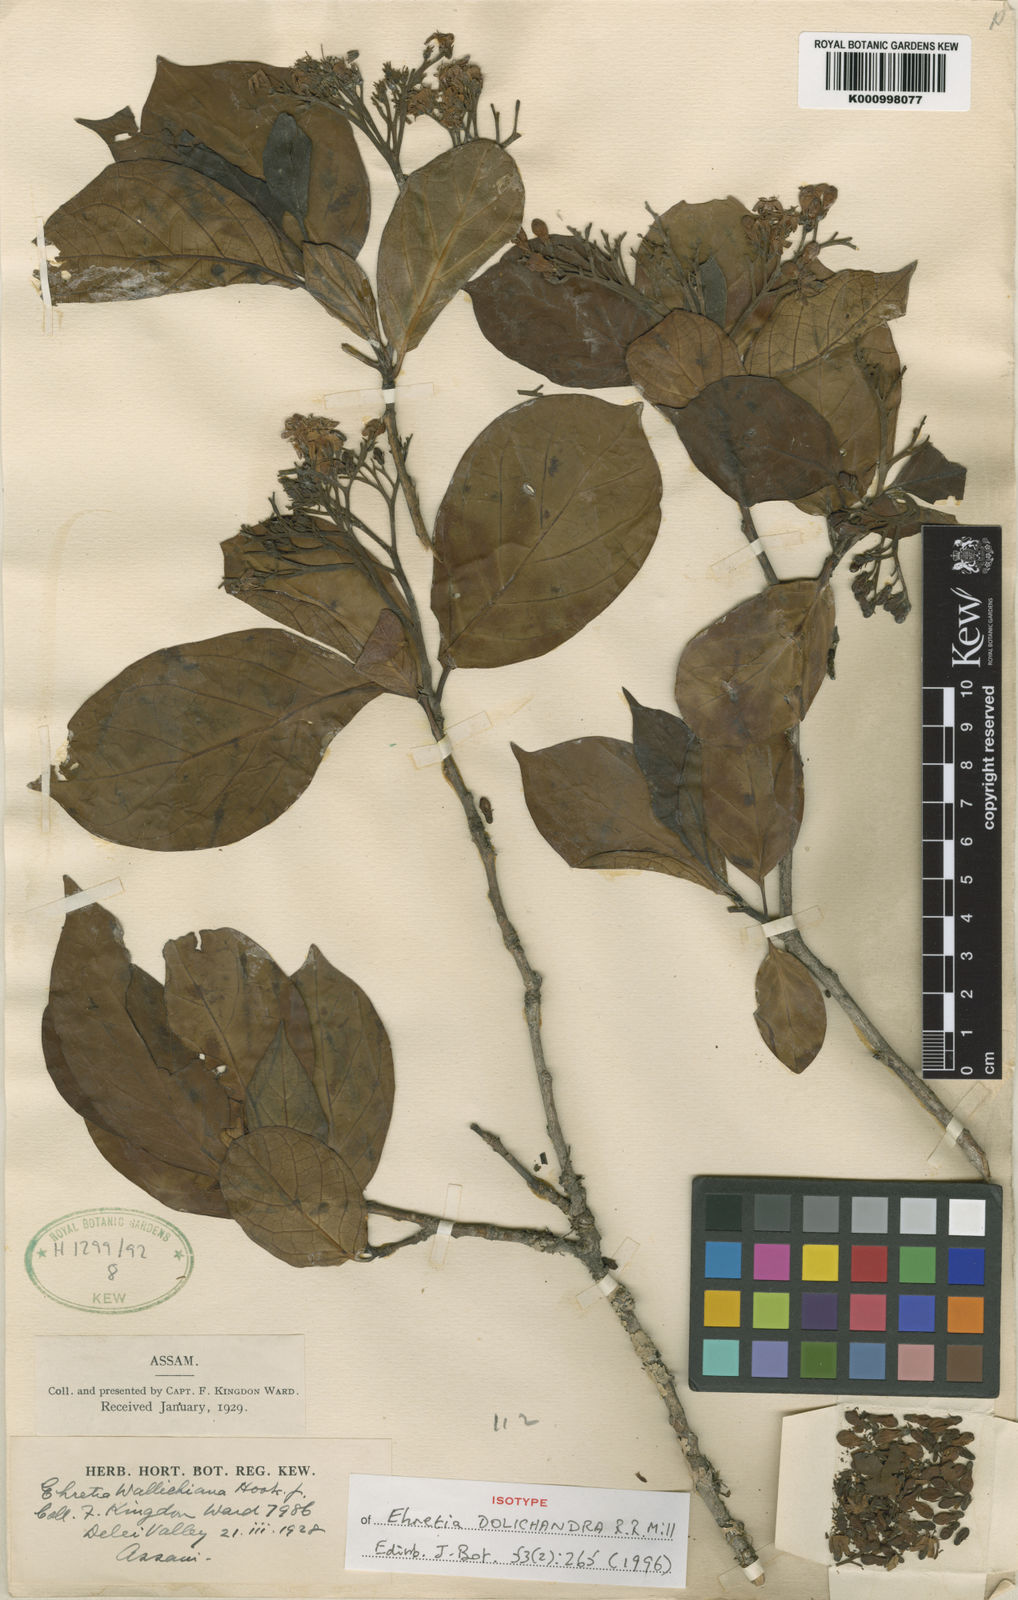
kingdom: Plantae
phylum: Tracheophyta
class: Magnoliopsida
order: Boraginales
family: Ehretiaceae
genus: Ehretia
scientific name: Ehretia acuminata
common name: Kodo wood
